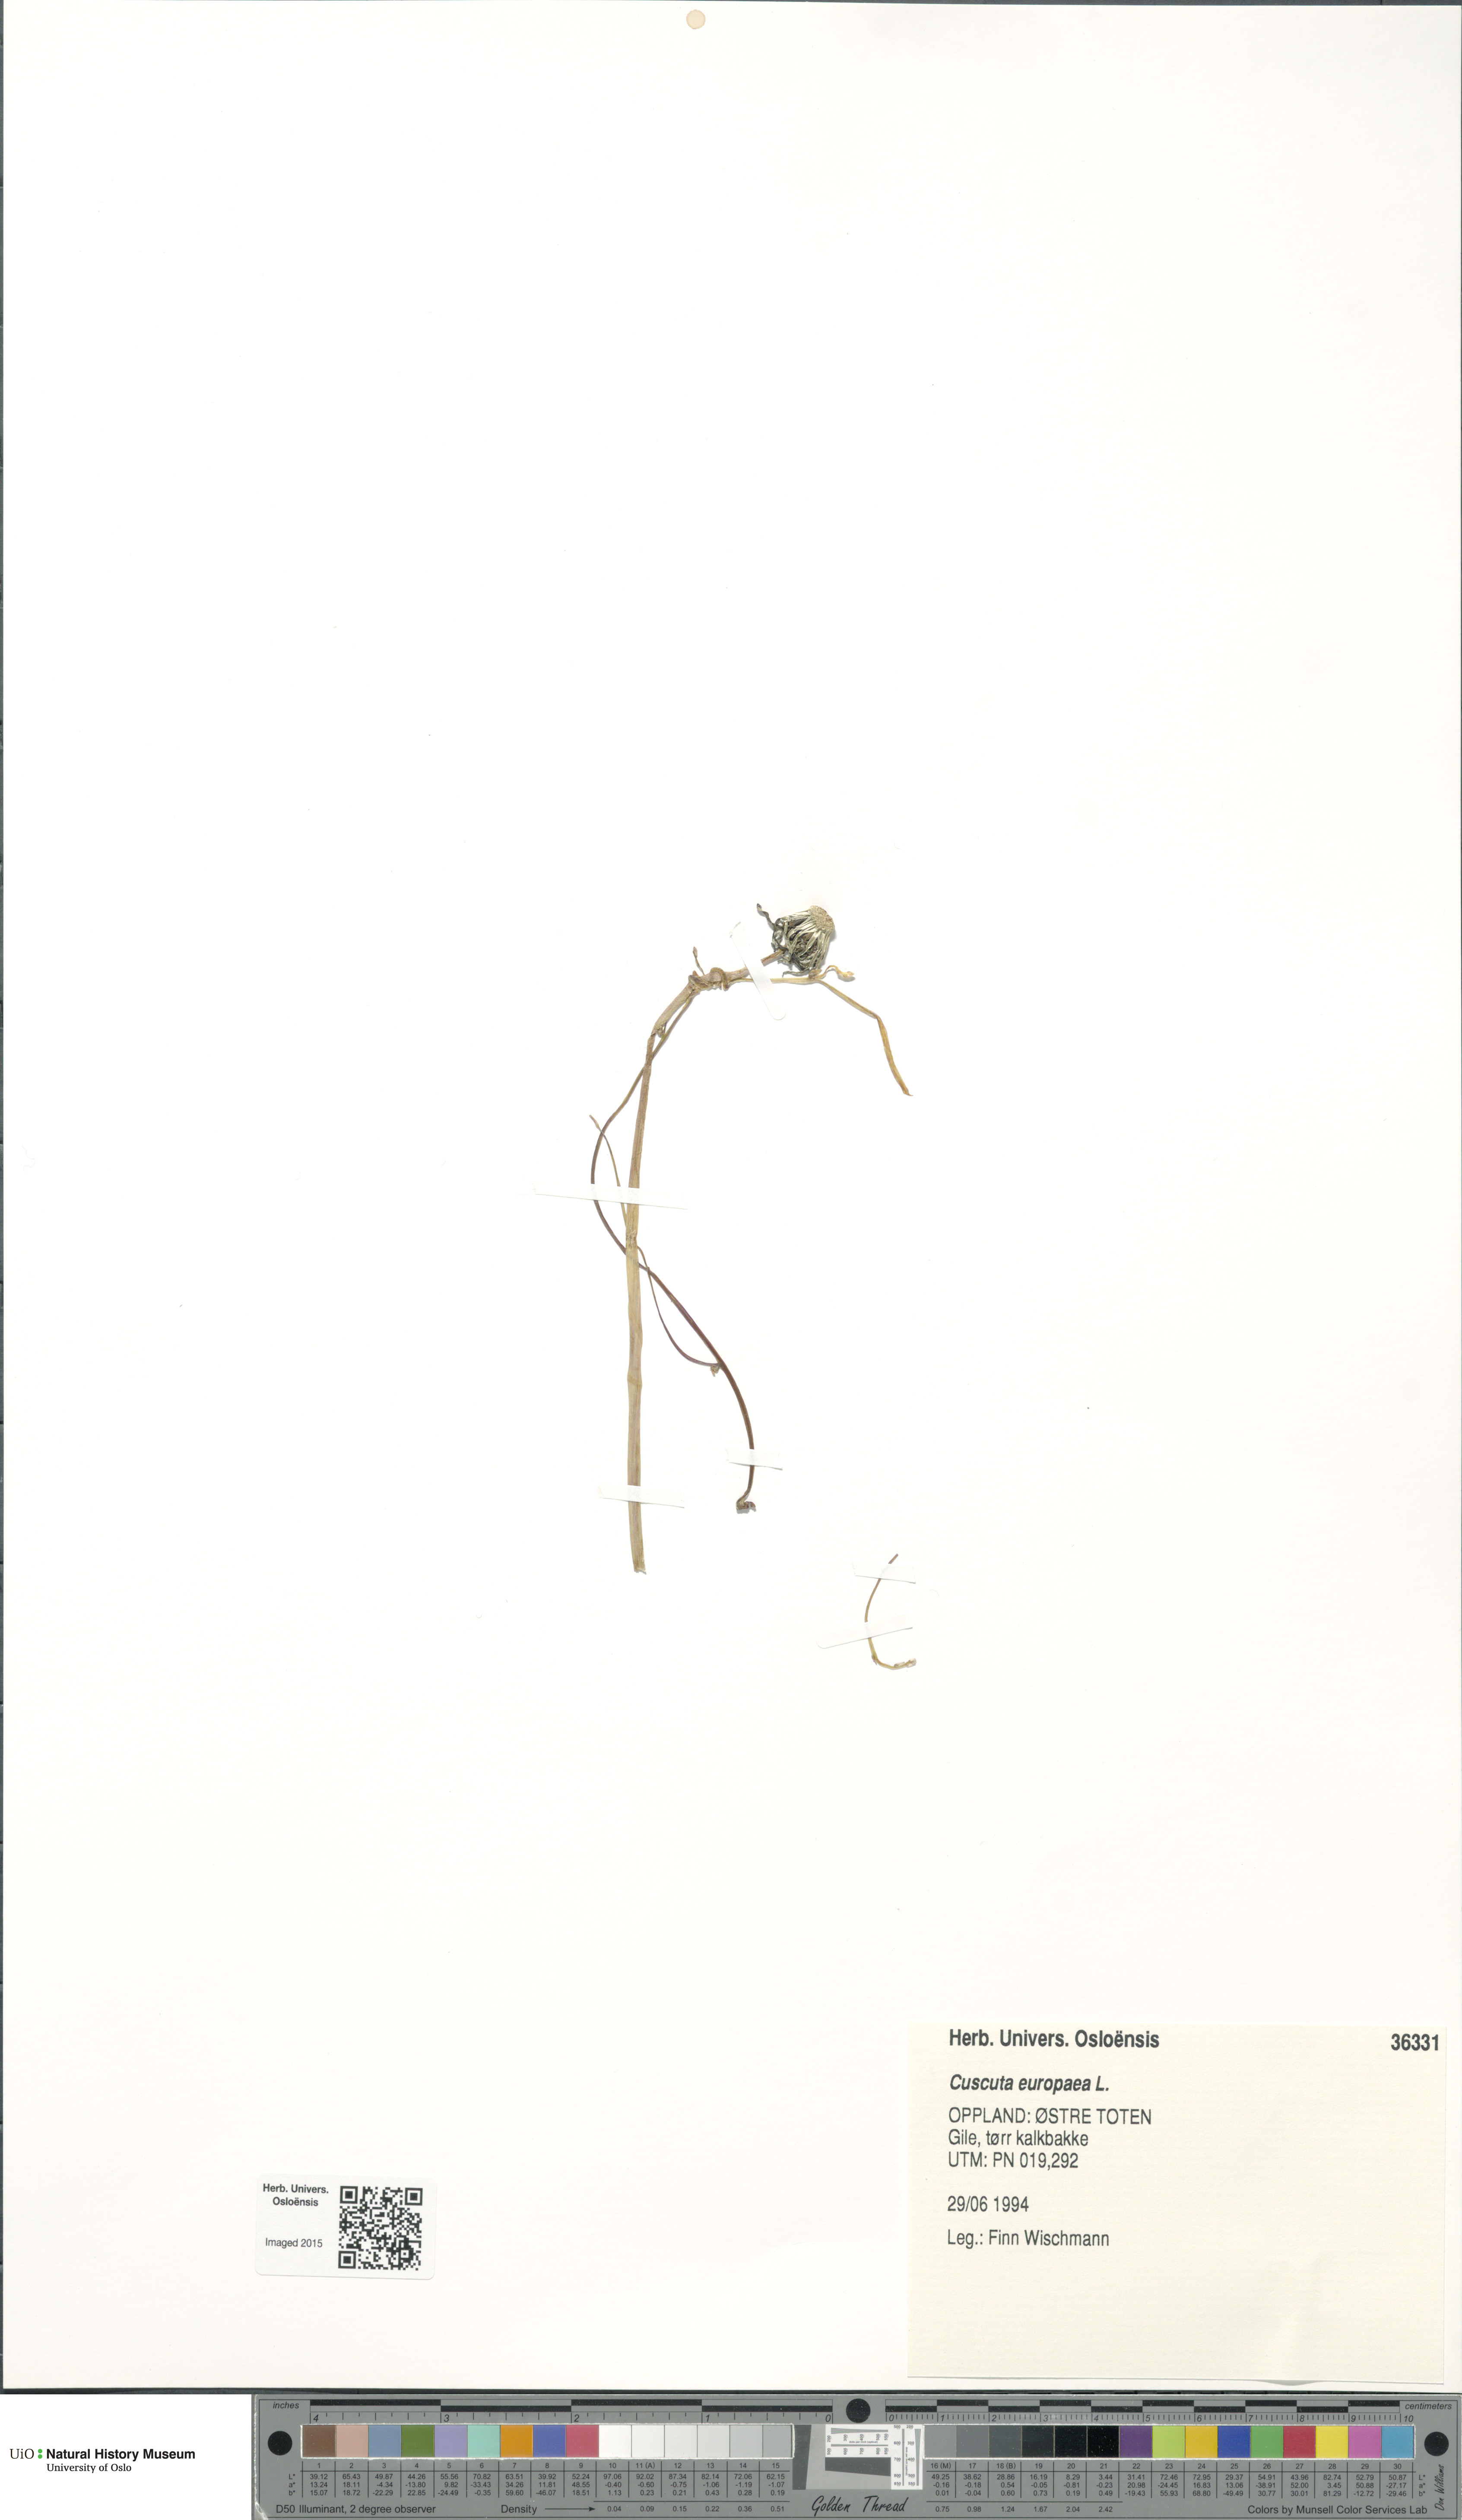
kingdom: Plantae
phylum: Tracheophyta
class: Magnoliopsida
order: Solanales
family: Convolvulaceae
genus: Cuscuta
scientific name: Cuscuta europaea
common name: Greater dodder
